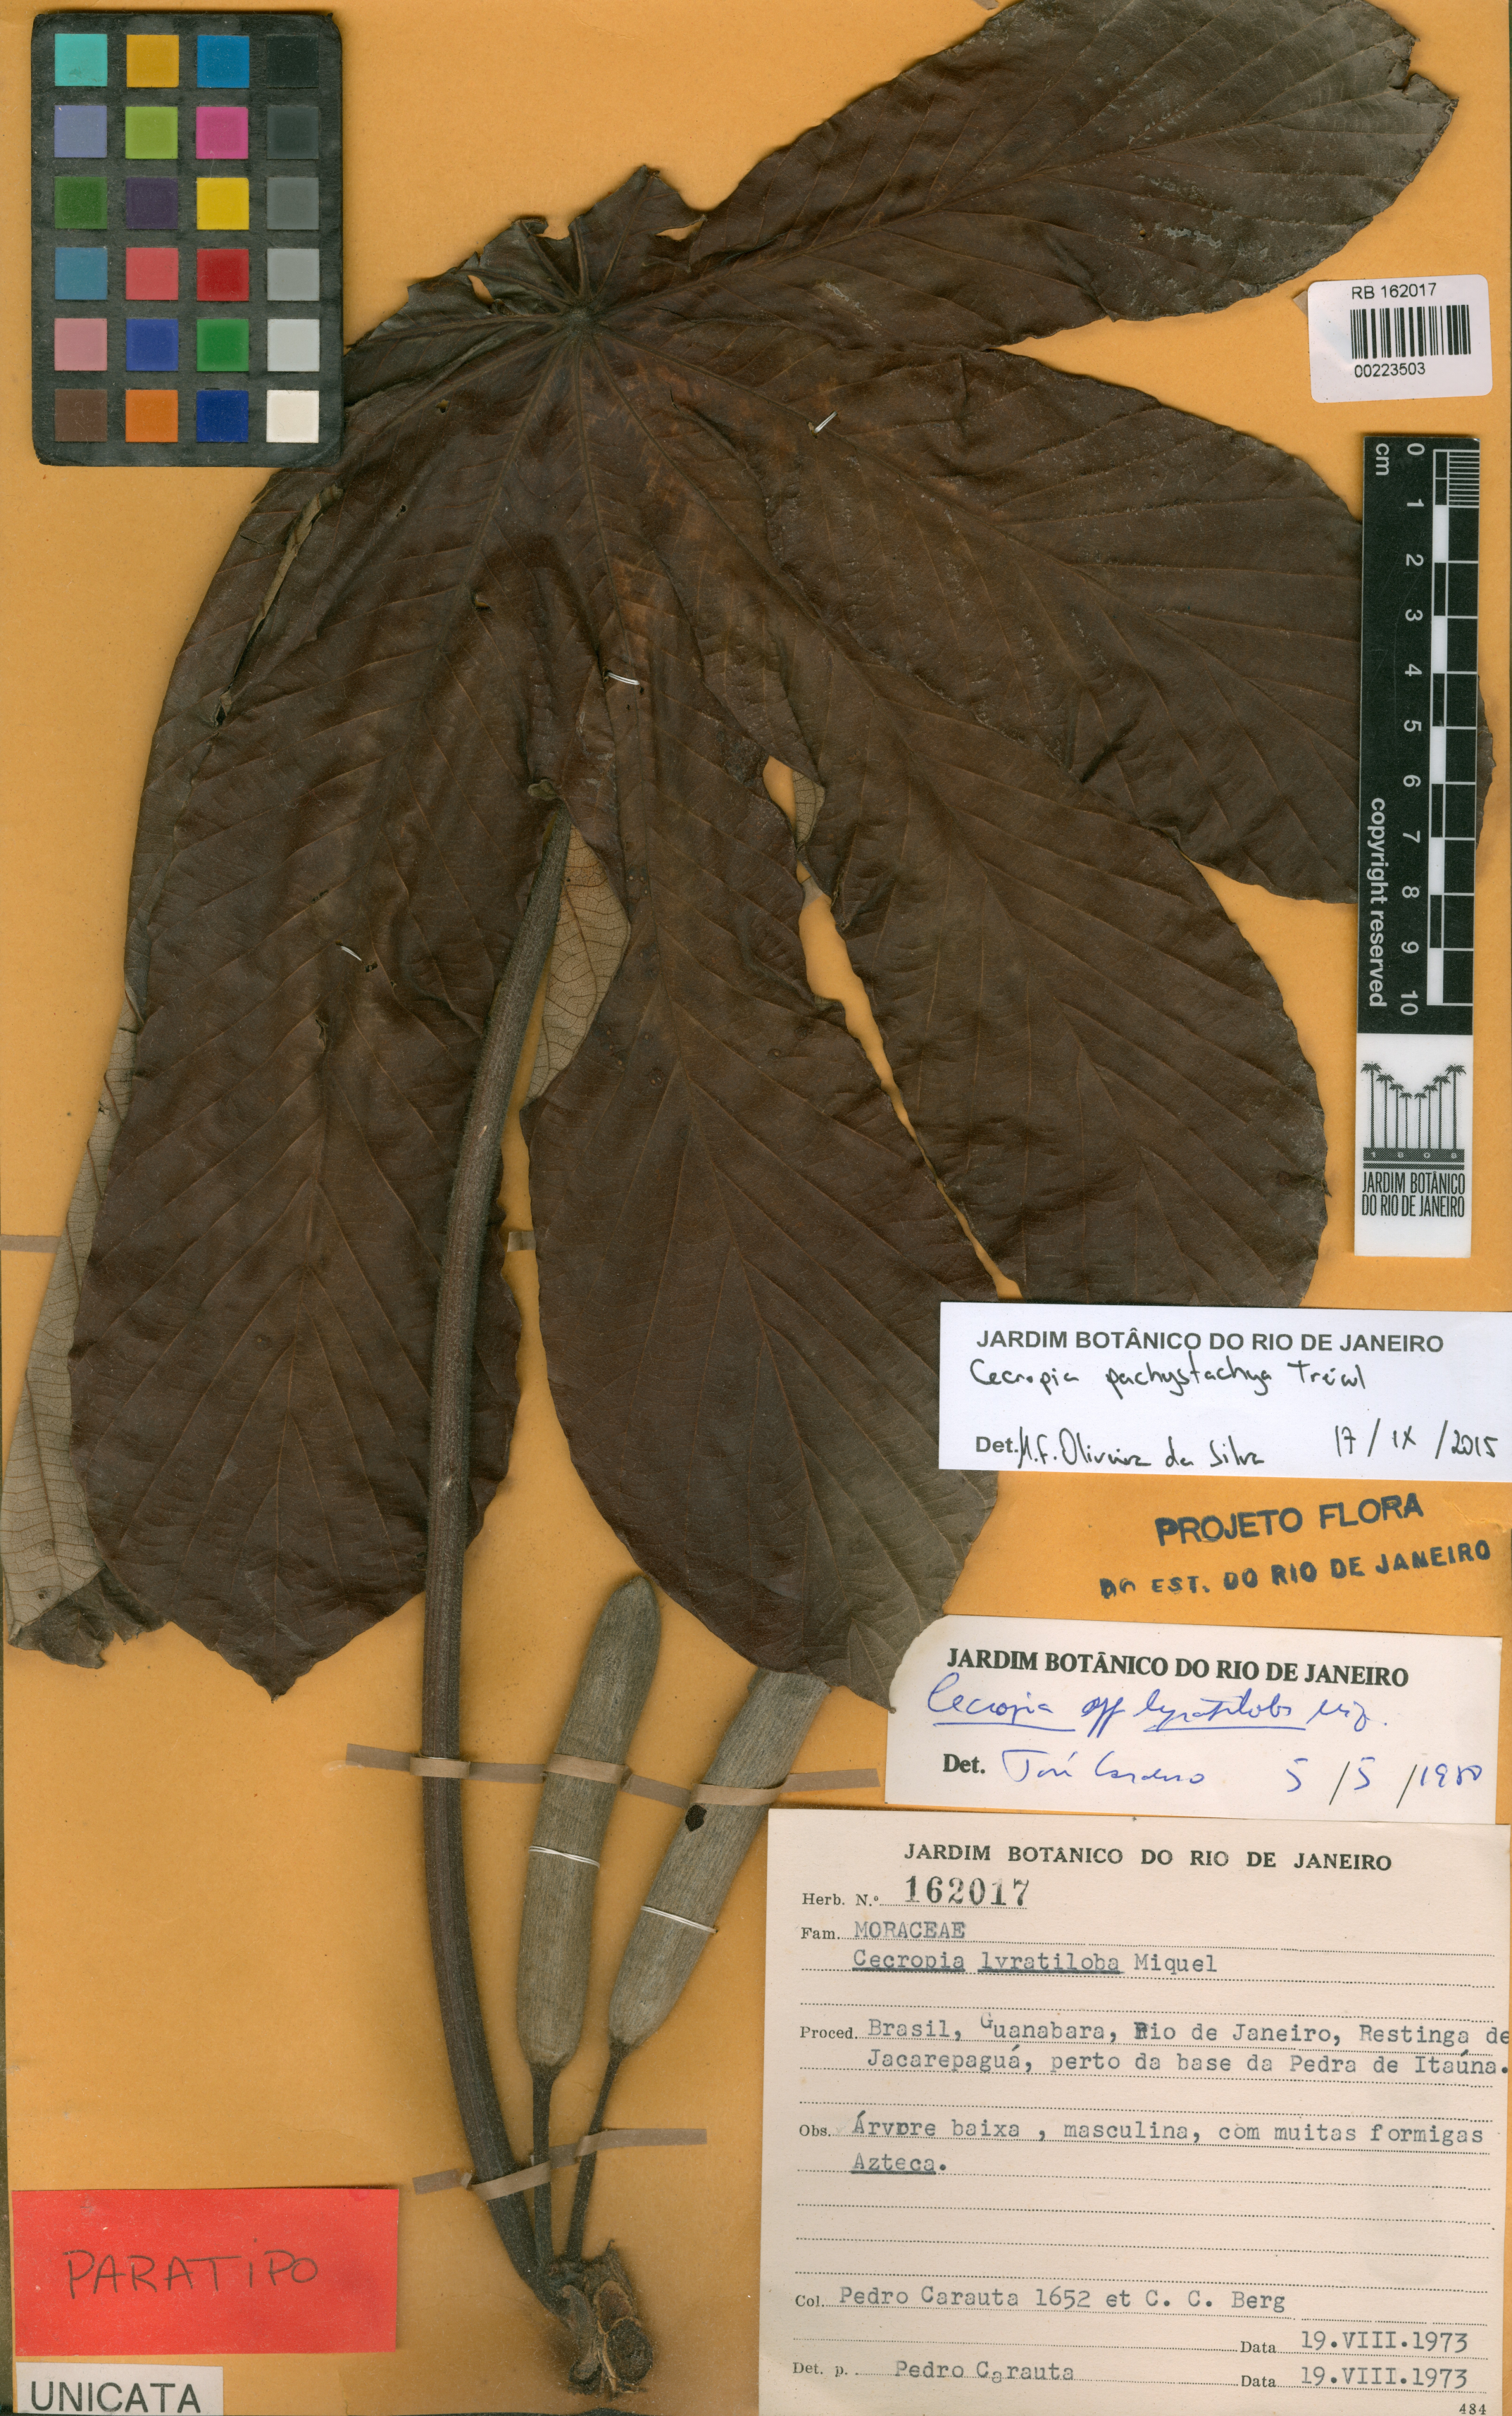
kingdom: Plantae
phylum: Tracheophyta
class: Magnoliopsida
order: Rosales
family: Urticaceae
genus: Cecropia
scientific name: Cecropia pachystachya
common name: Ambay pumpwood
